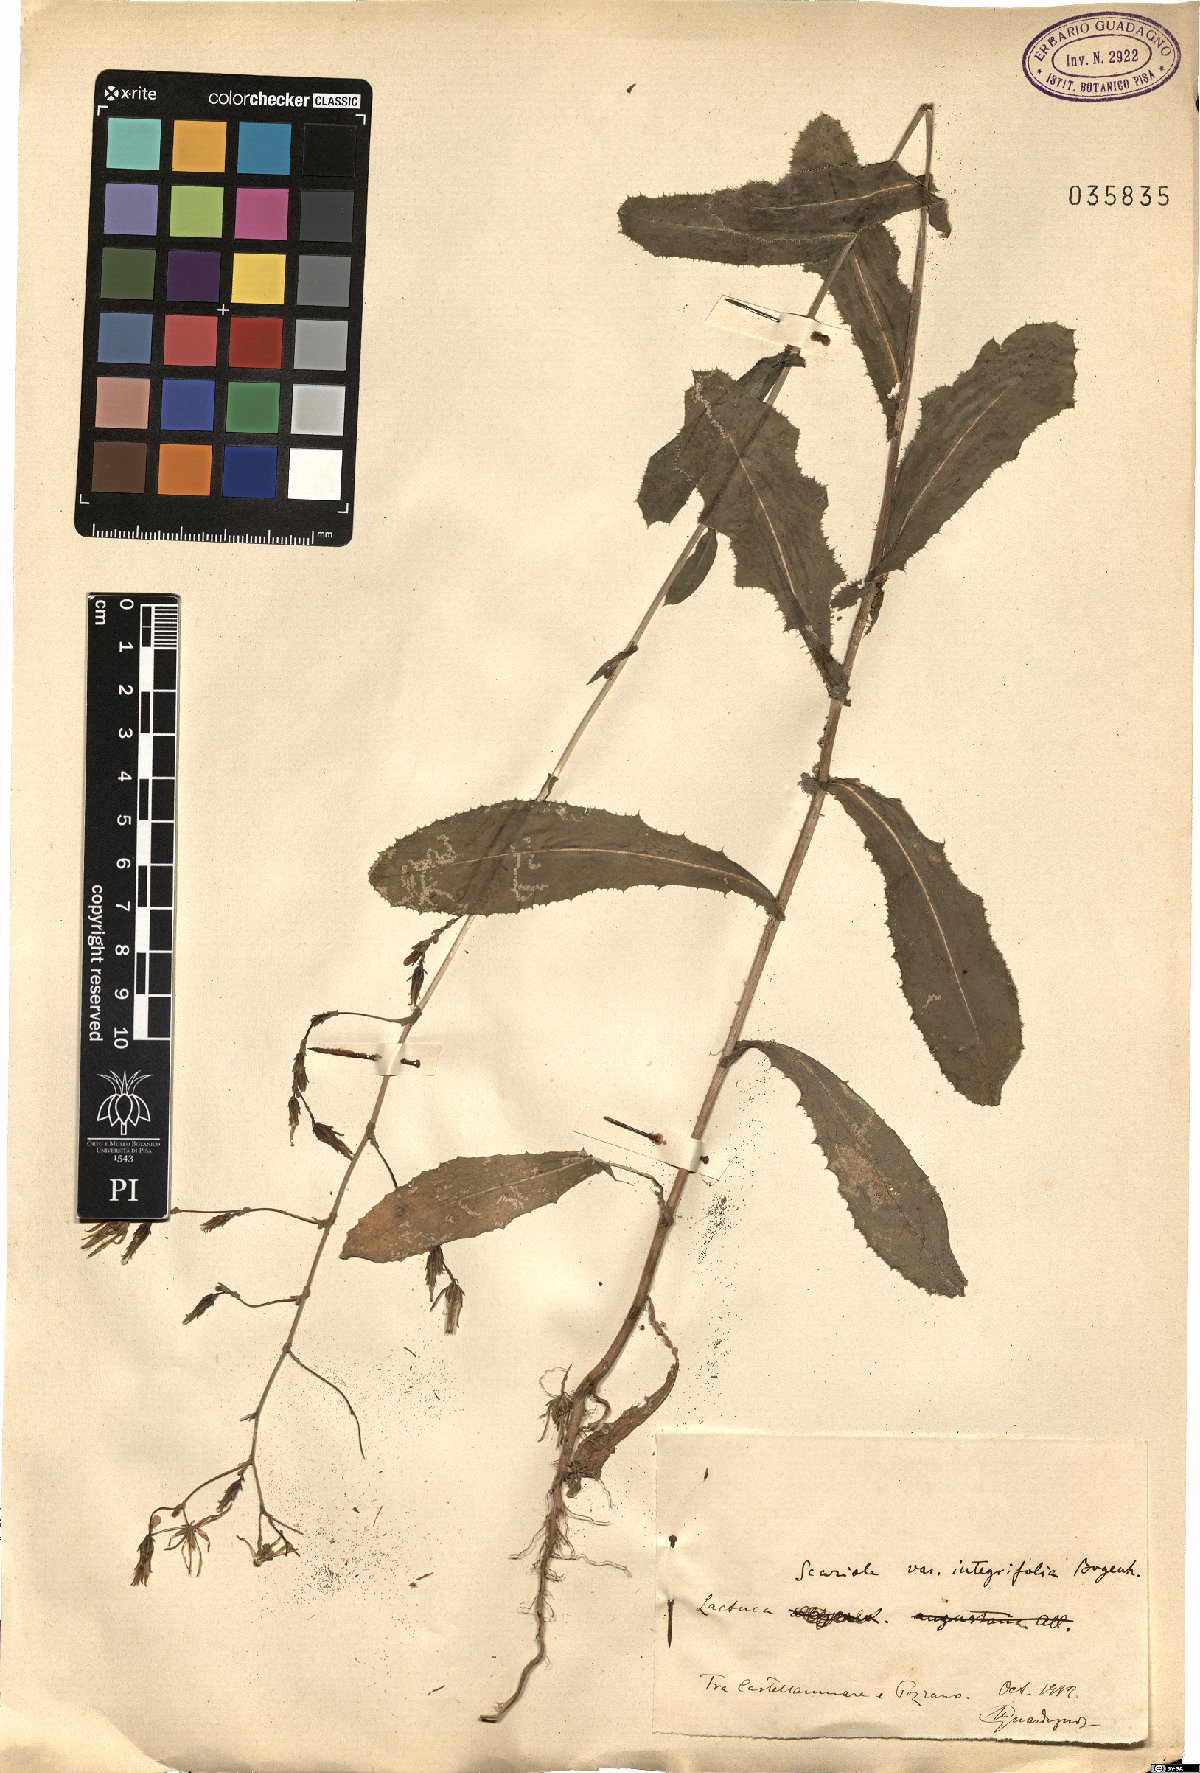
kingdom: Plantae
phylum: Tracheophyta
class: Magnoliopsida
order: Asterales
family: Asteraceae
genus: Lactuca
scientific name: Lactuca serriola
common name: Prickly lettuce
